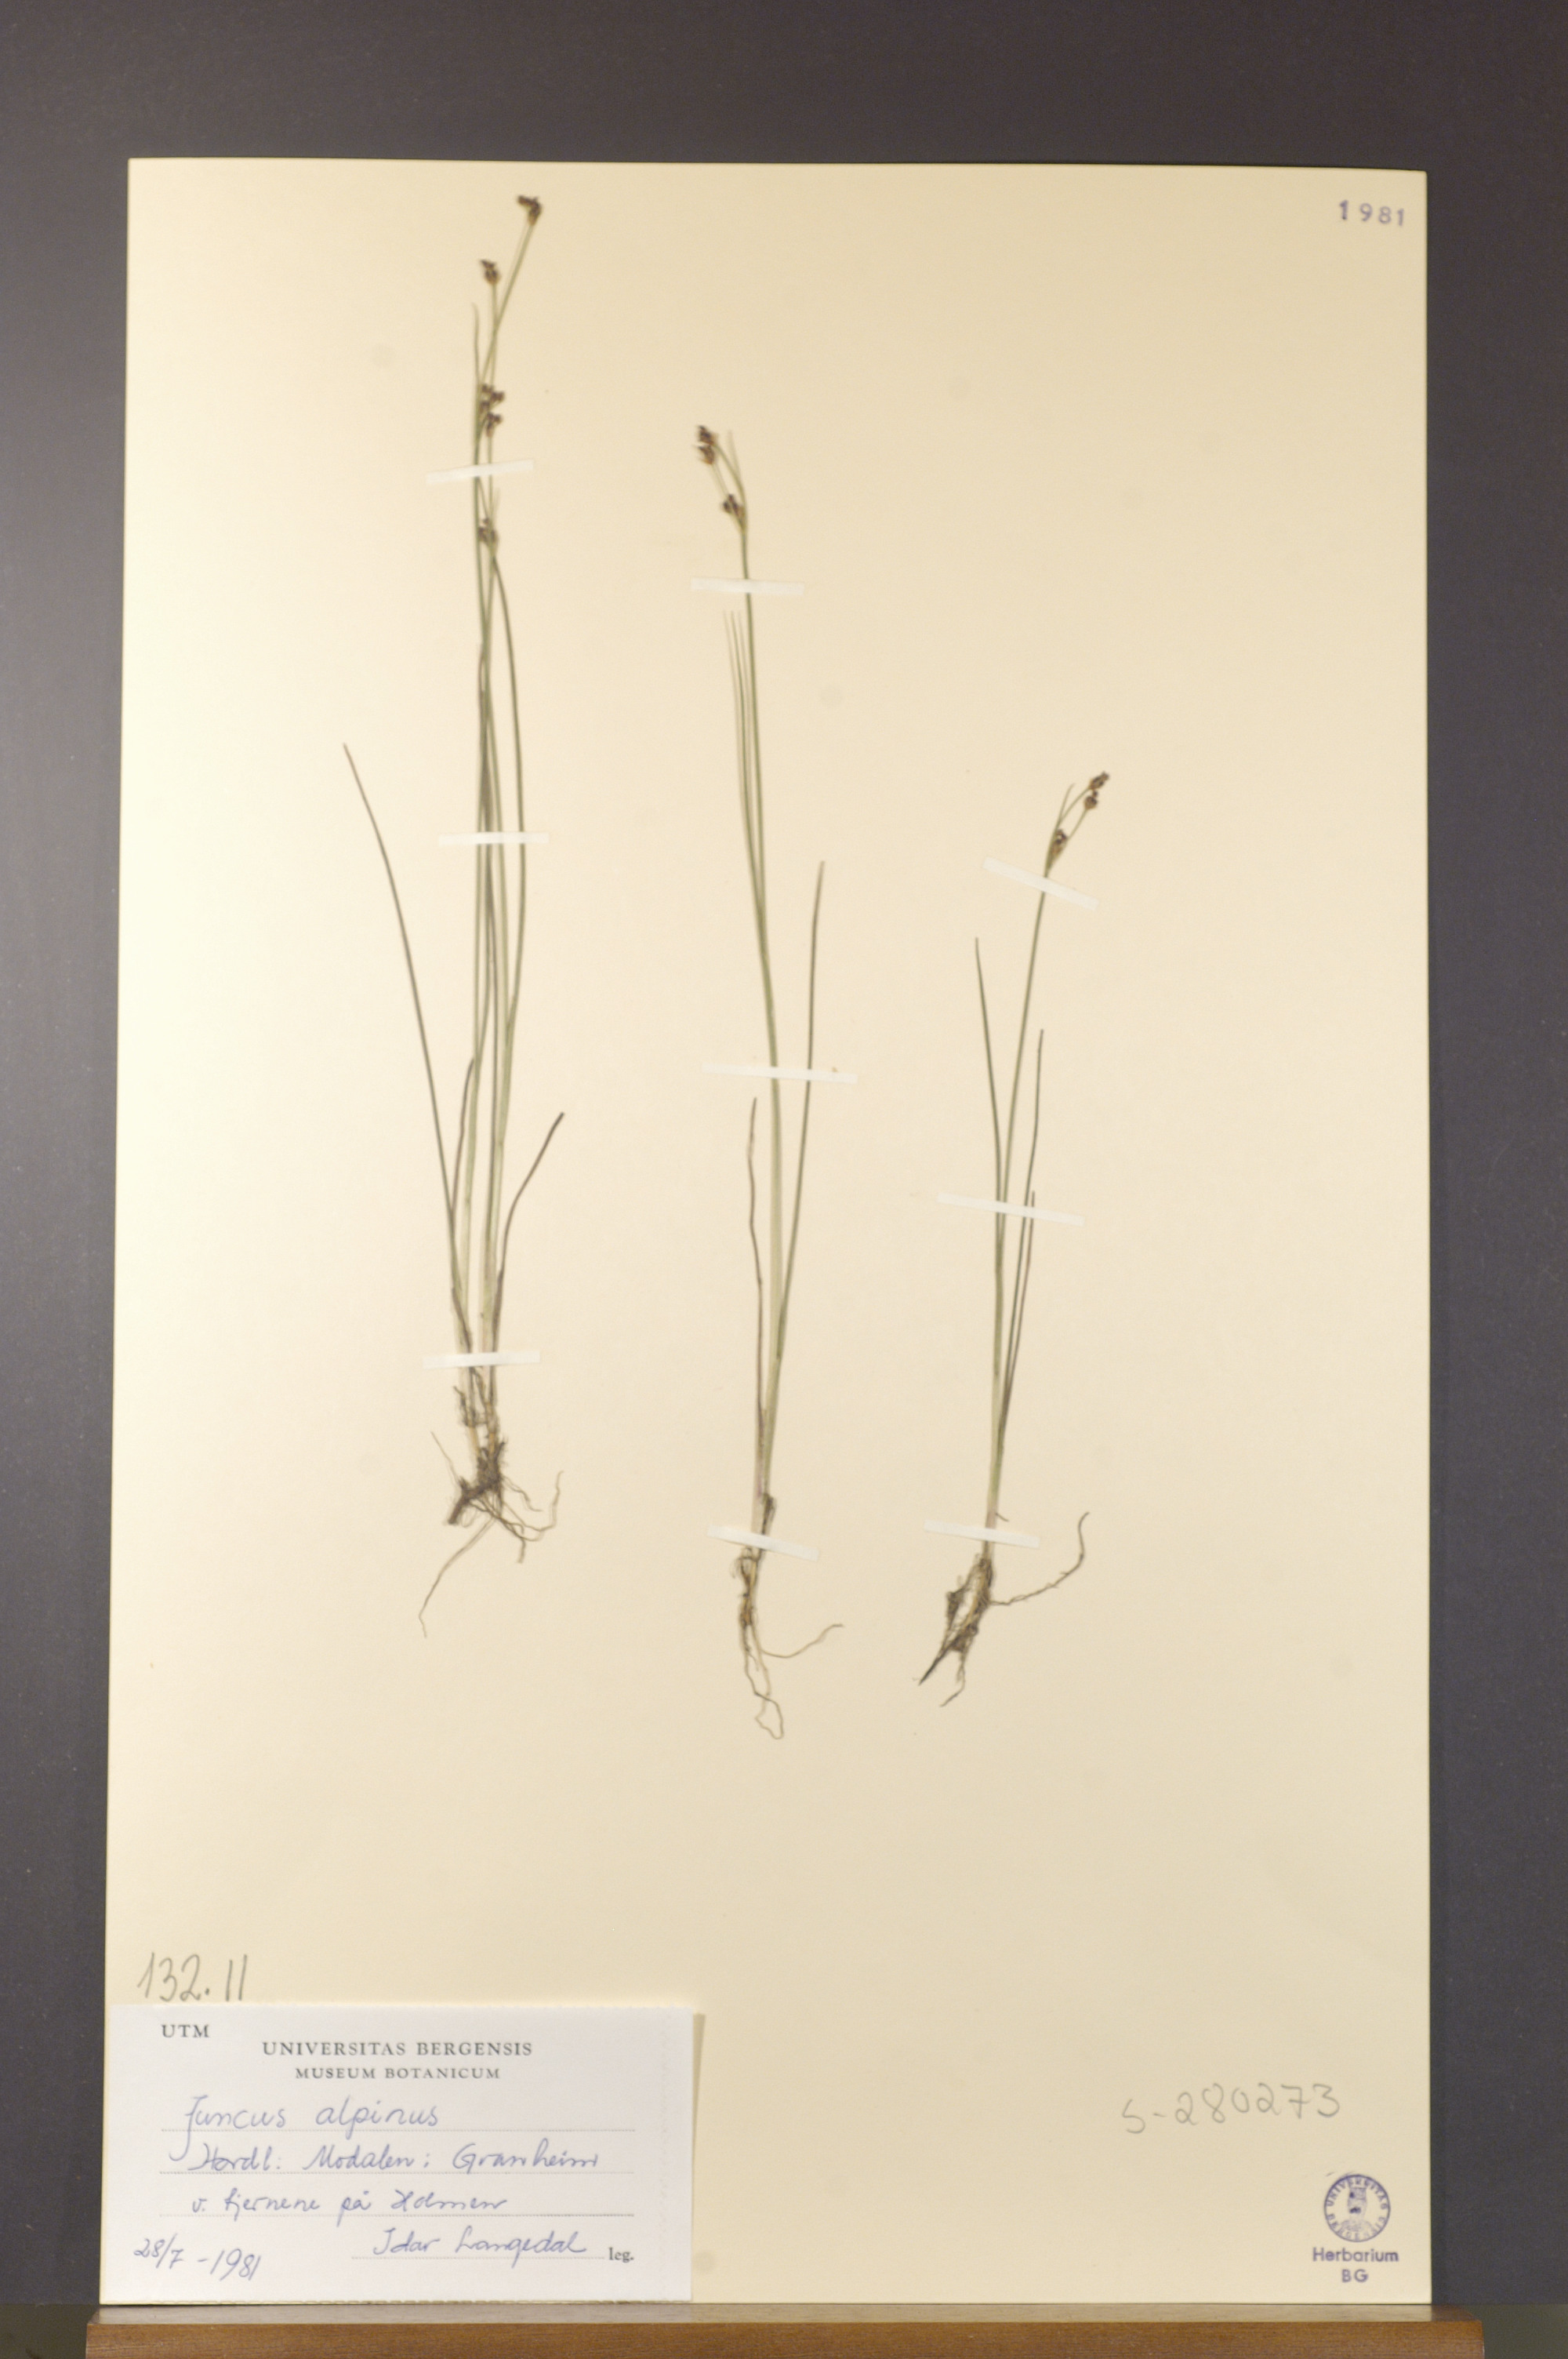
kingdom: Plantae
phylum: Tracheophyta
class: Liliopsida
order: Poales
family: Juncaceae
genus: Juncus
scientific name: Juncus alpinoarticulatus
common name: Alpine rush
